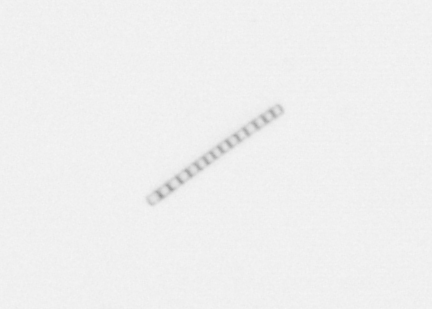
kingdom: Chromista
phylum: Ochrophyta
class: Bacillariophyceae
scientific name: Bacillariophyceae
